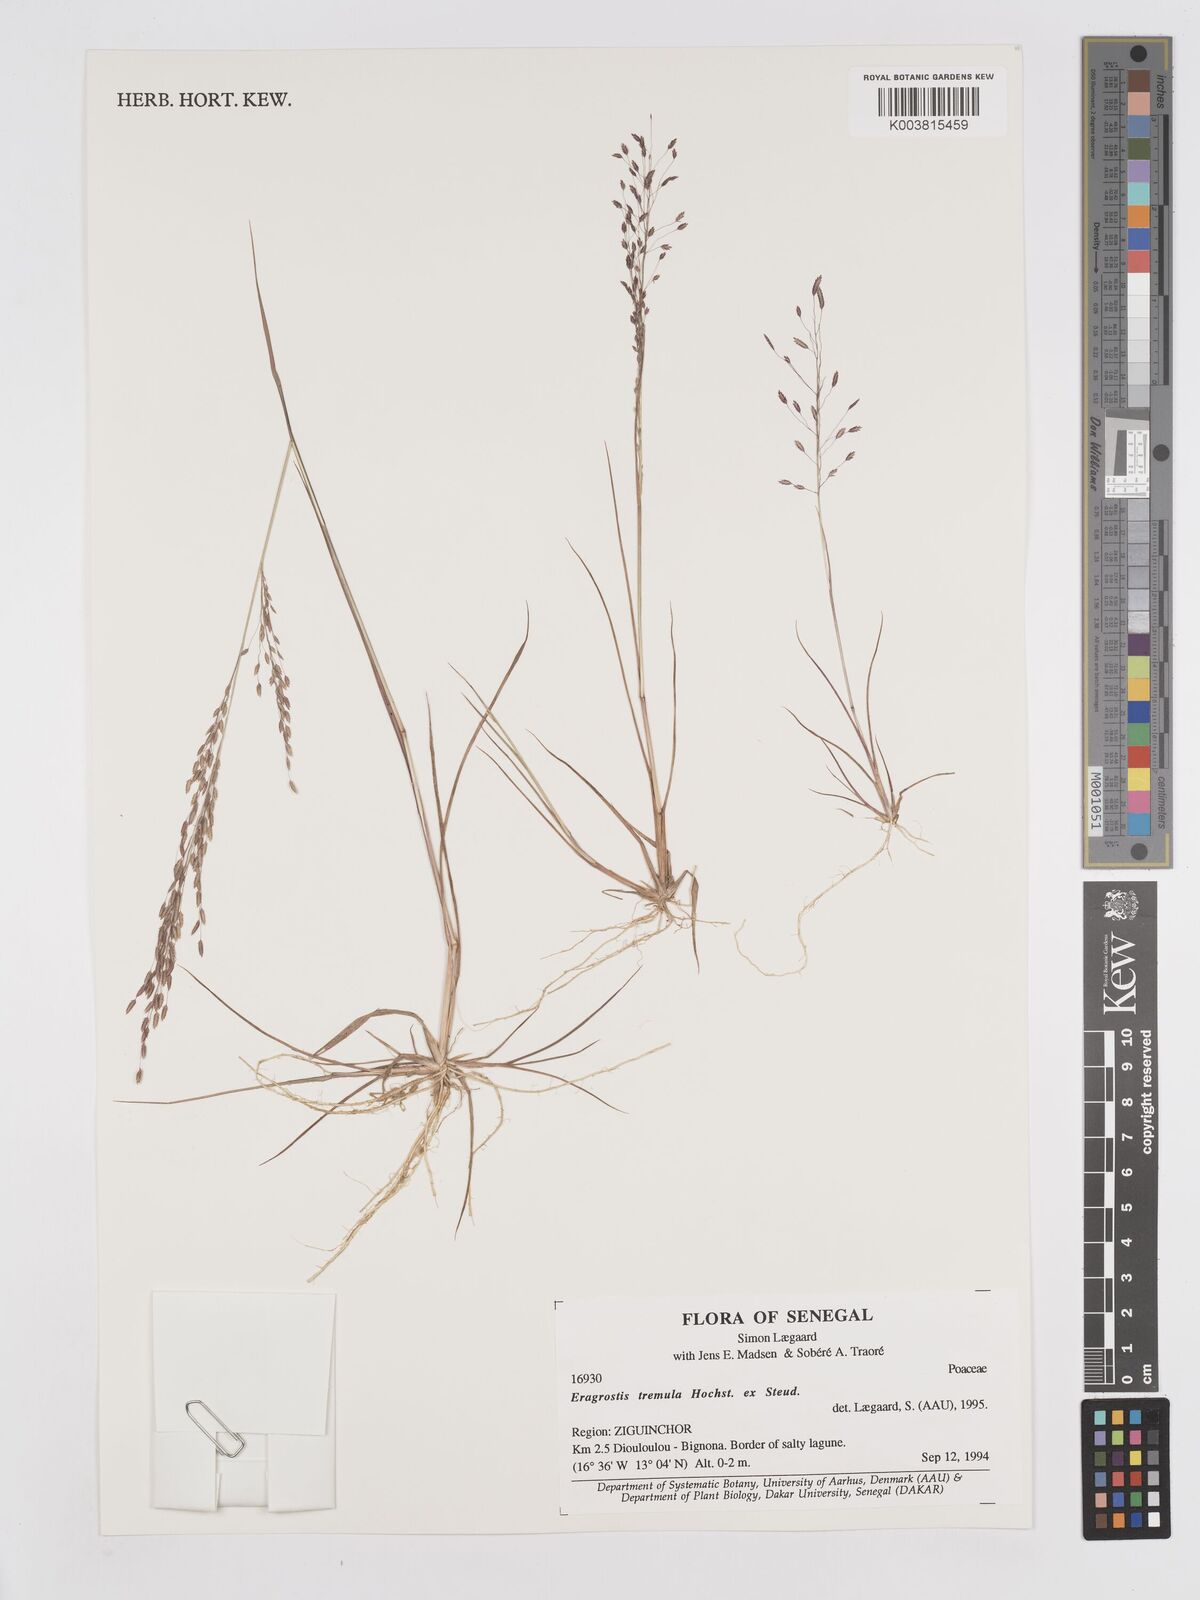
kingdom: Plantae
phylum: Tracheophyta
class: Liliopsida
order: Poales
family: Poaceae
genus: Eragrostis
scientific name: Eragrostis tremula
